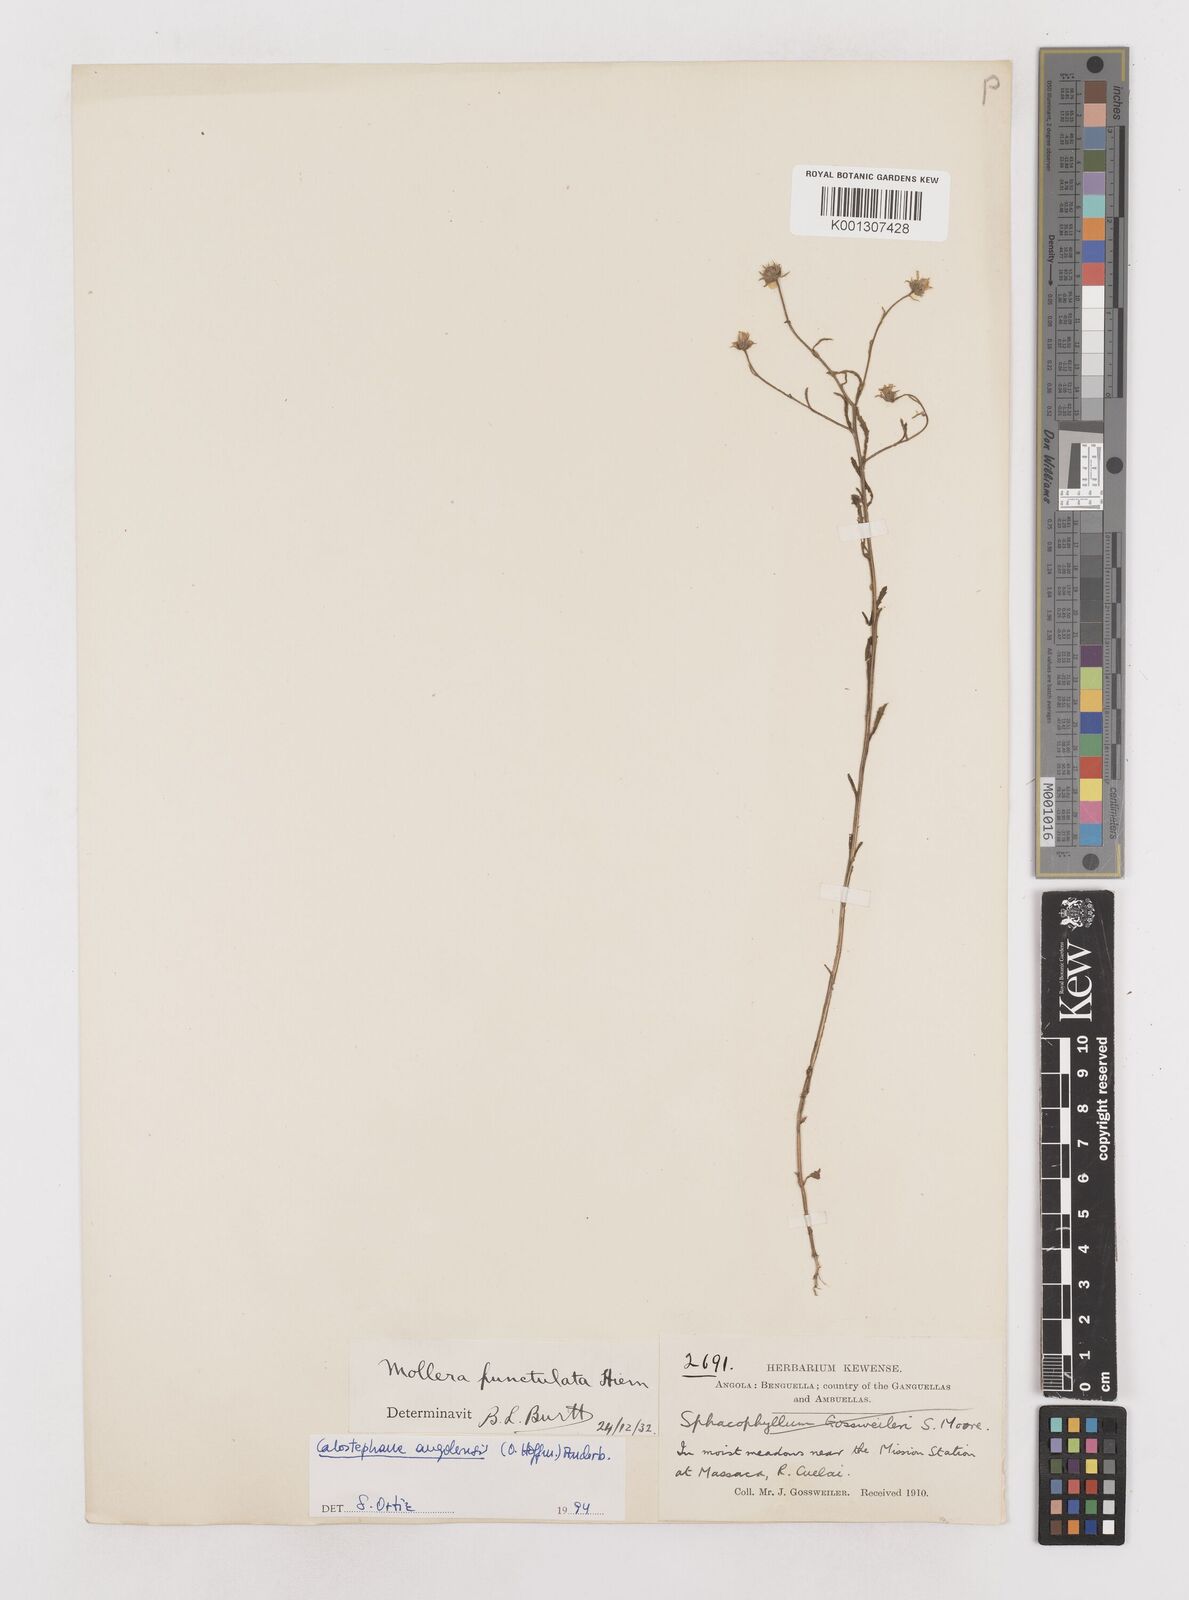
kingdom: Plantae
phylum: Tracheophyta
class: Magnoliopsida
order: Asterales
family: Asteraceae
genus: Calostephane
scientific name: Calostephane angolensis
